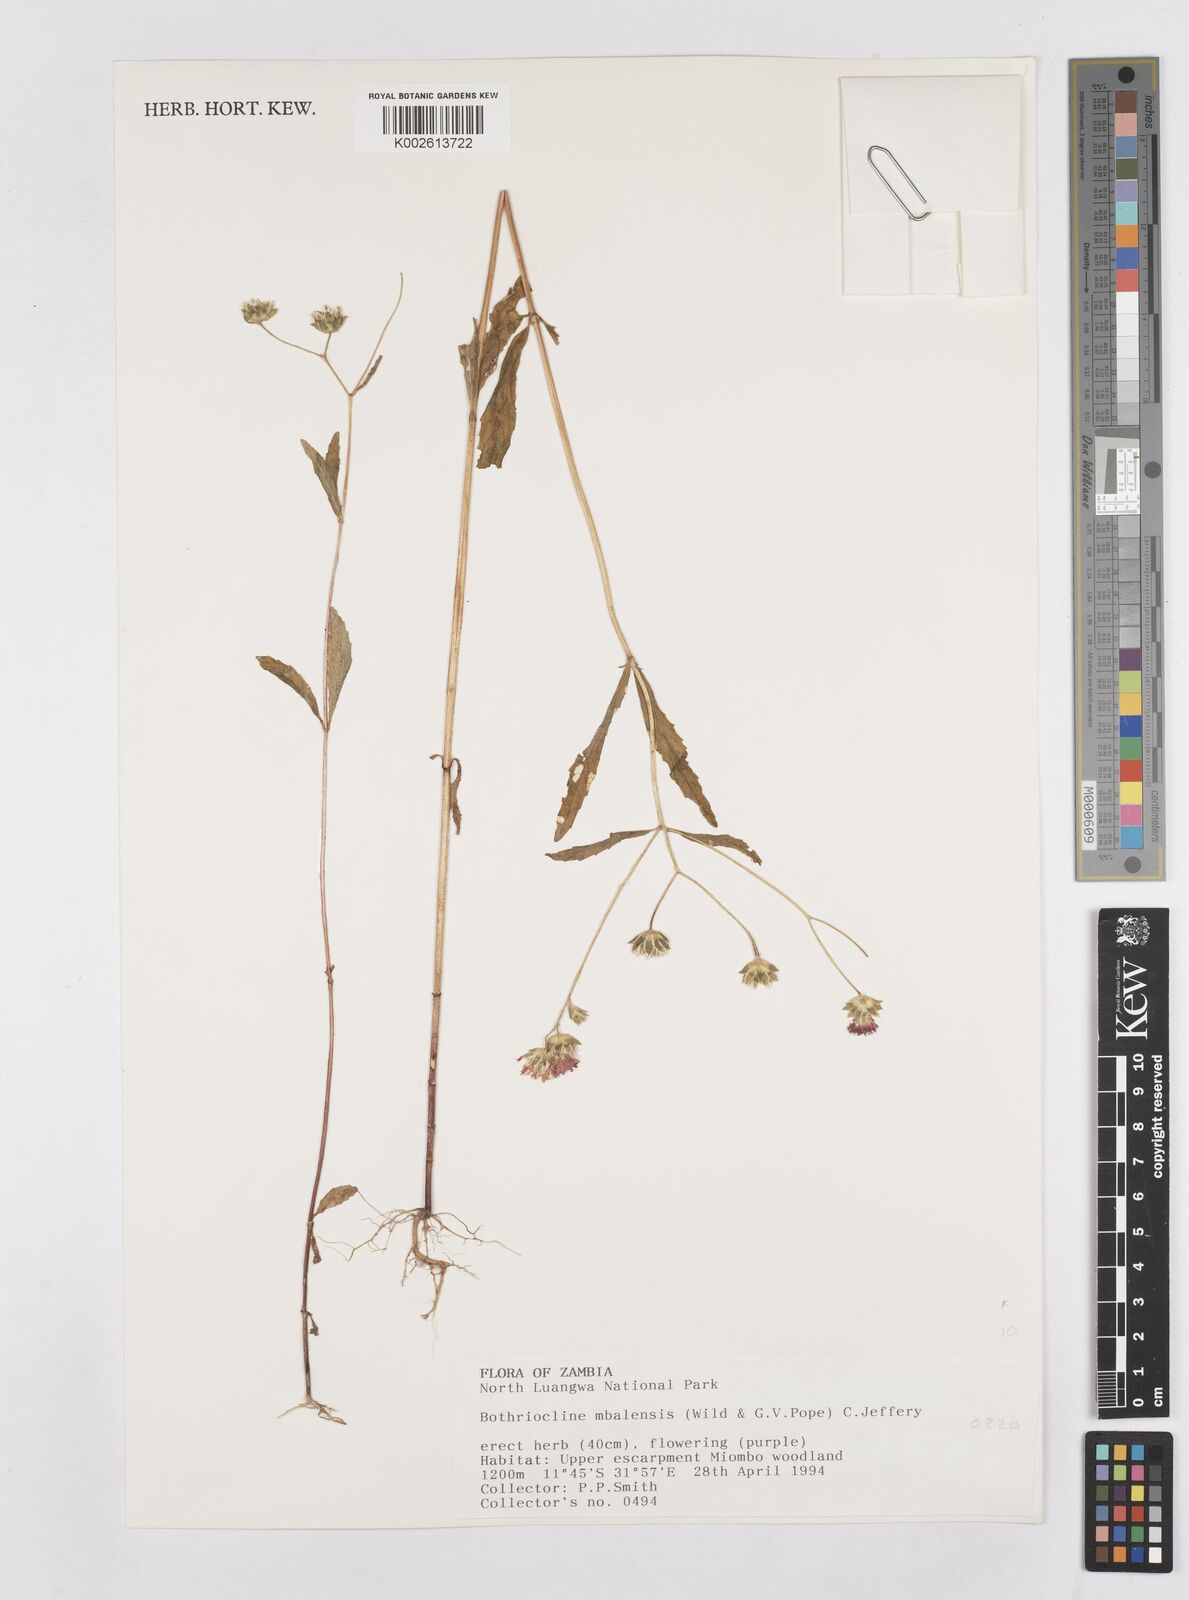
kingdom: Plantae
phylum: Tracheophyta
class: Magnoliopsida
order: Asterales
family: Asteraceae
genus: Bothriocline
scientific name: Bothriocline mbalensis
